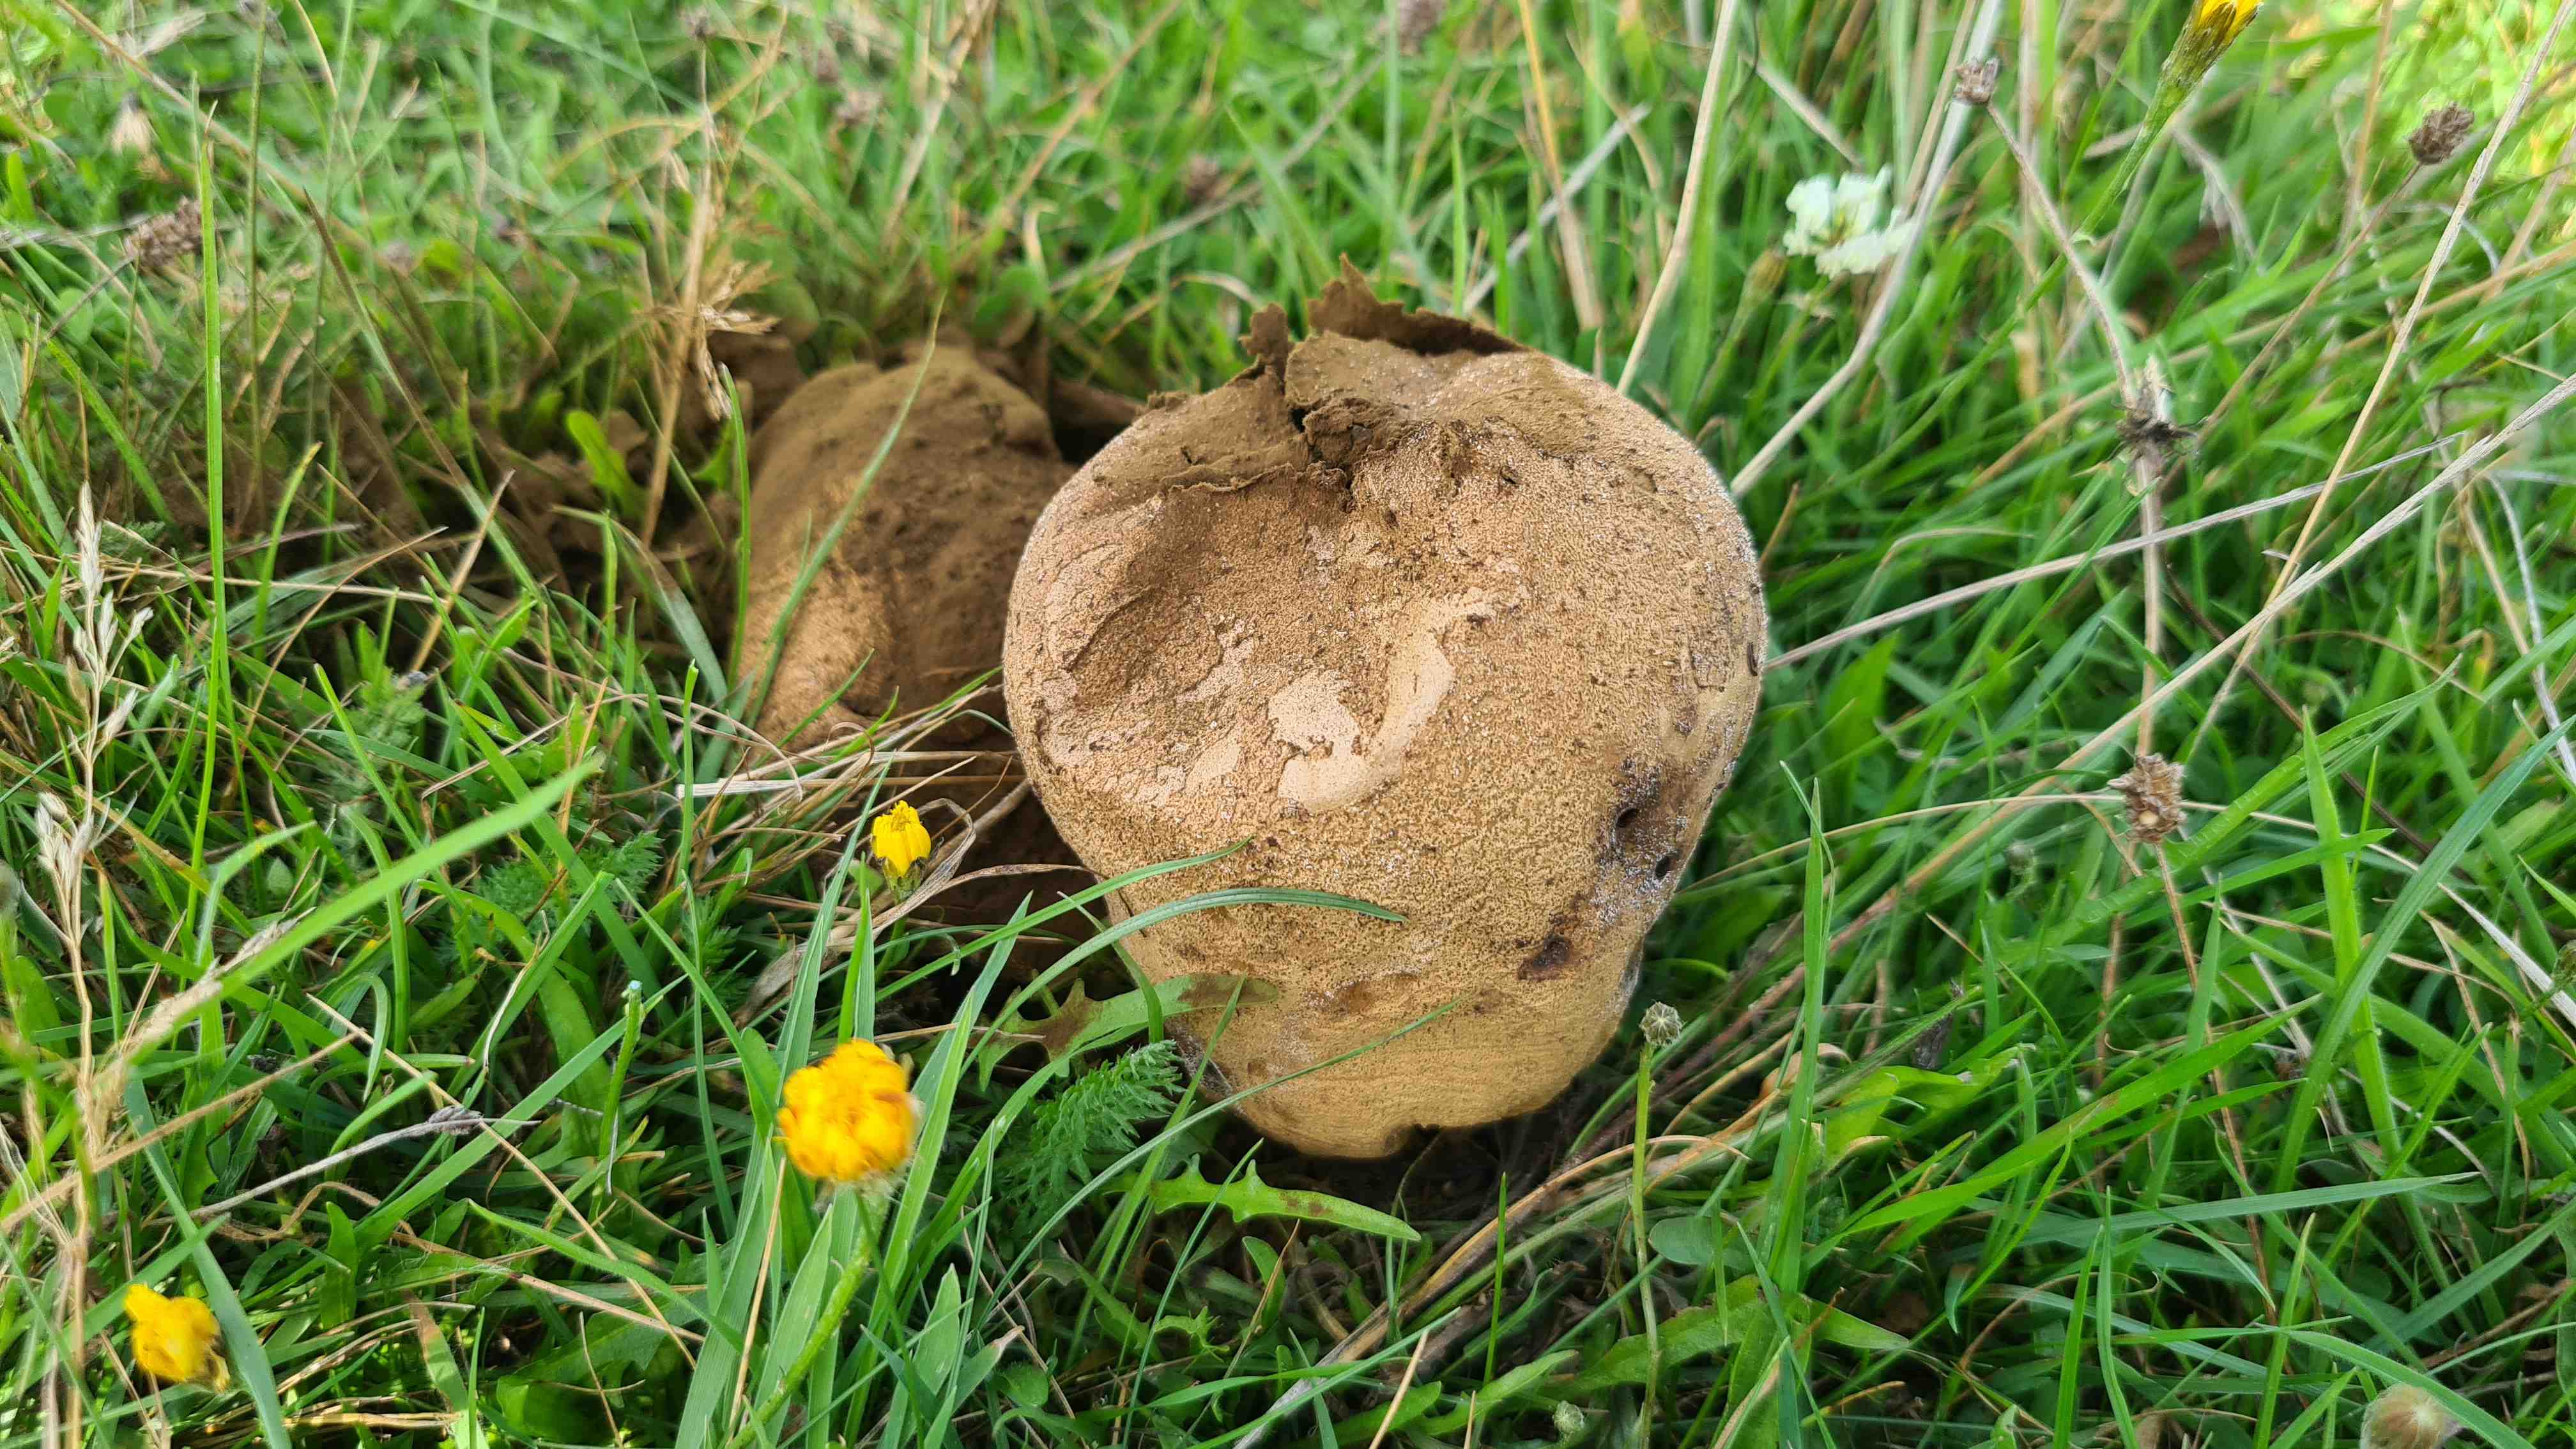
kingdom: Fungi
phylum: Basidiomycota
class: Agaricomycetes
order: Agaricales
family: Lycoperdaceae
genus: Bovistella
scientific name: Bovistella utriformis
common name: skællet støvbold
